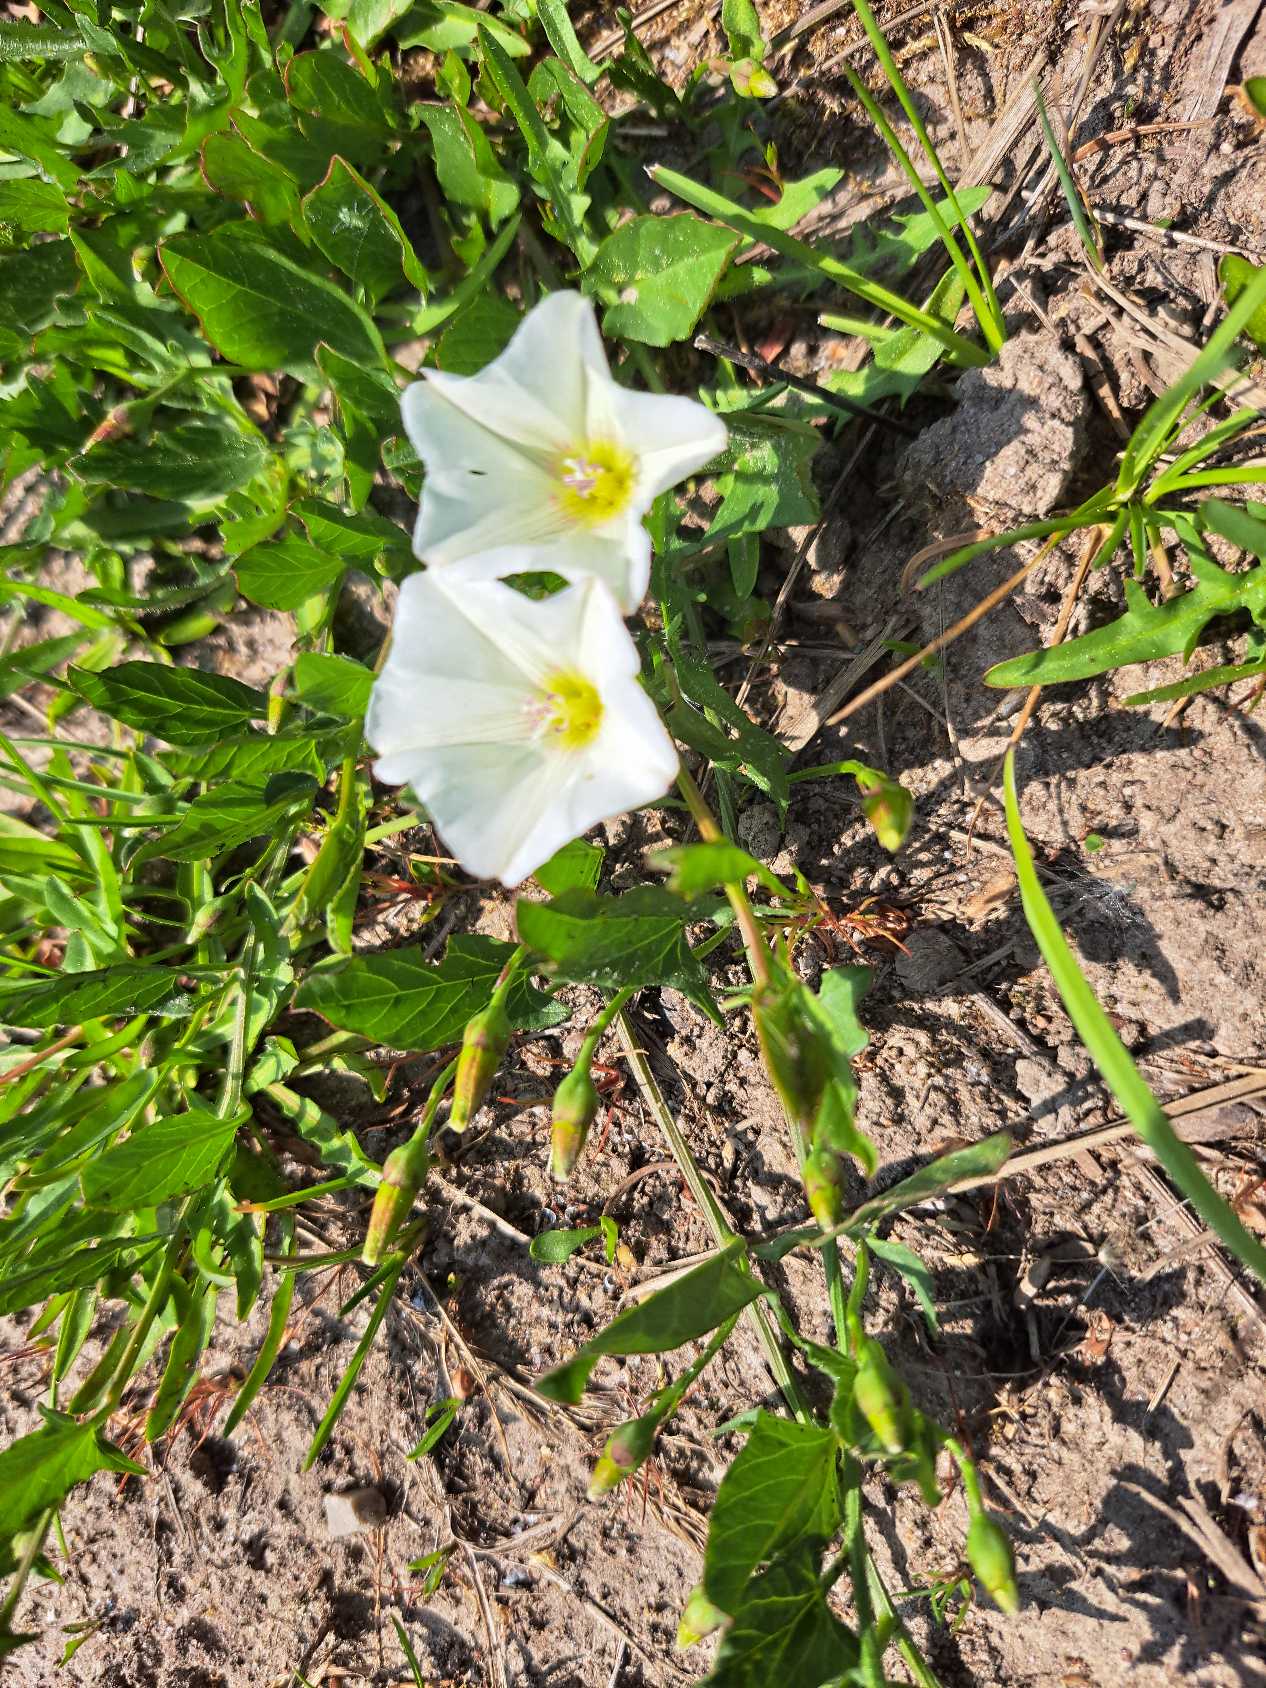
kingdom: Plantae
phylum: Tracheophyta
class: Magnoliopsida
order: Solanales
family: Convolvulaceae
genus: Convolvulus
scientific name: Convolvulus arvensis
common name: Ager-snerle
